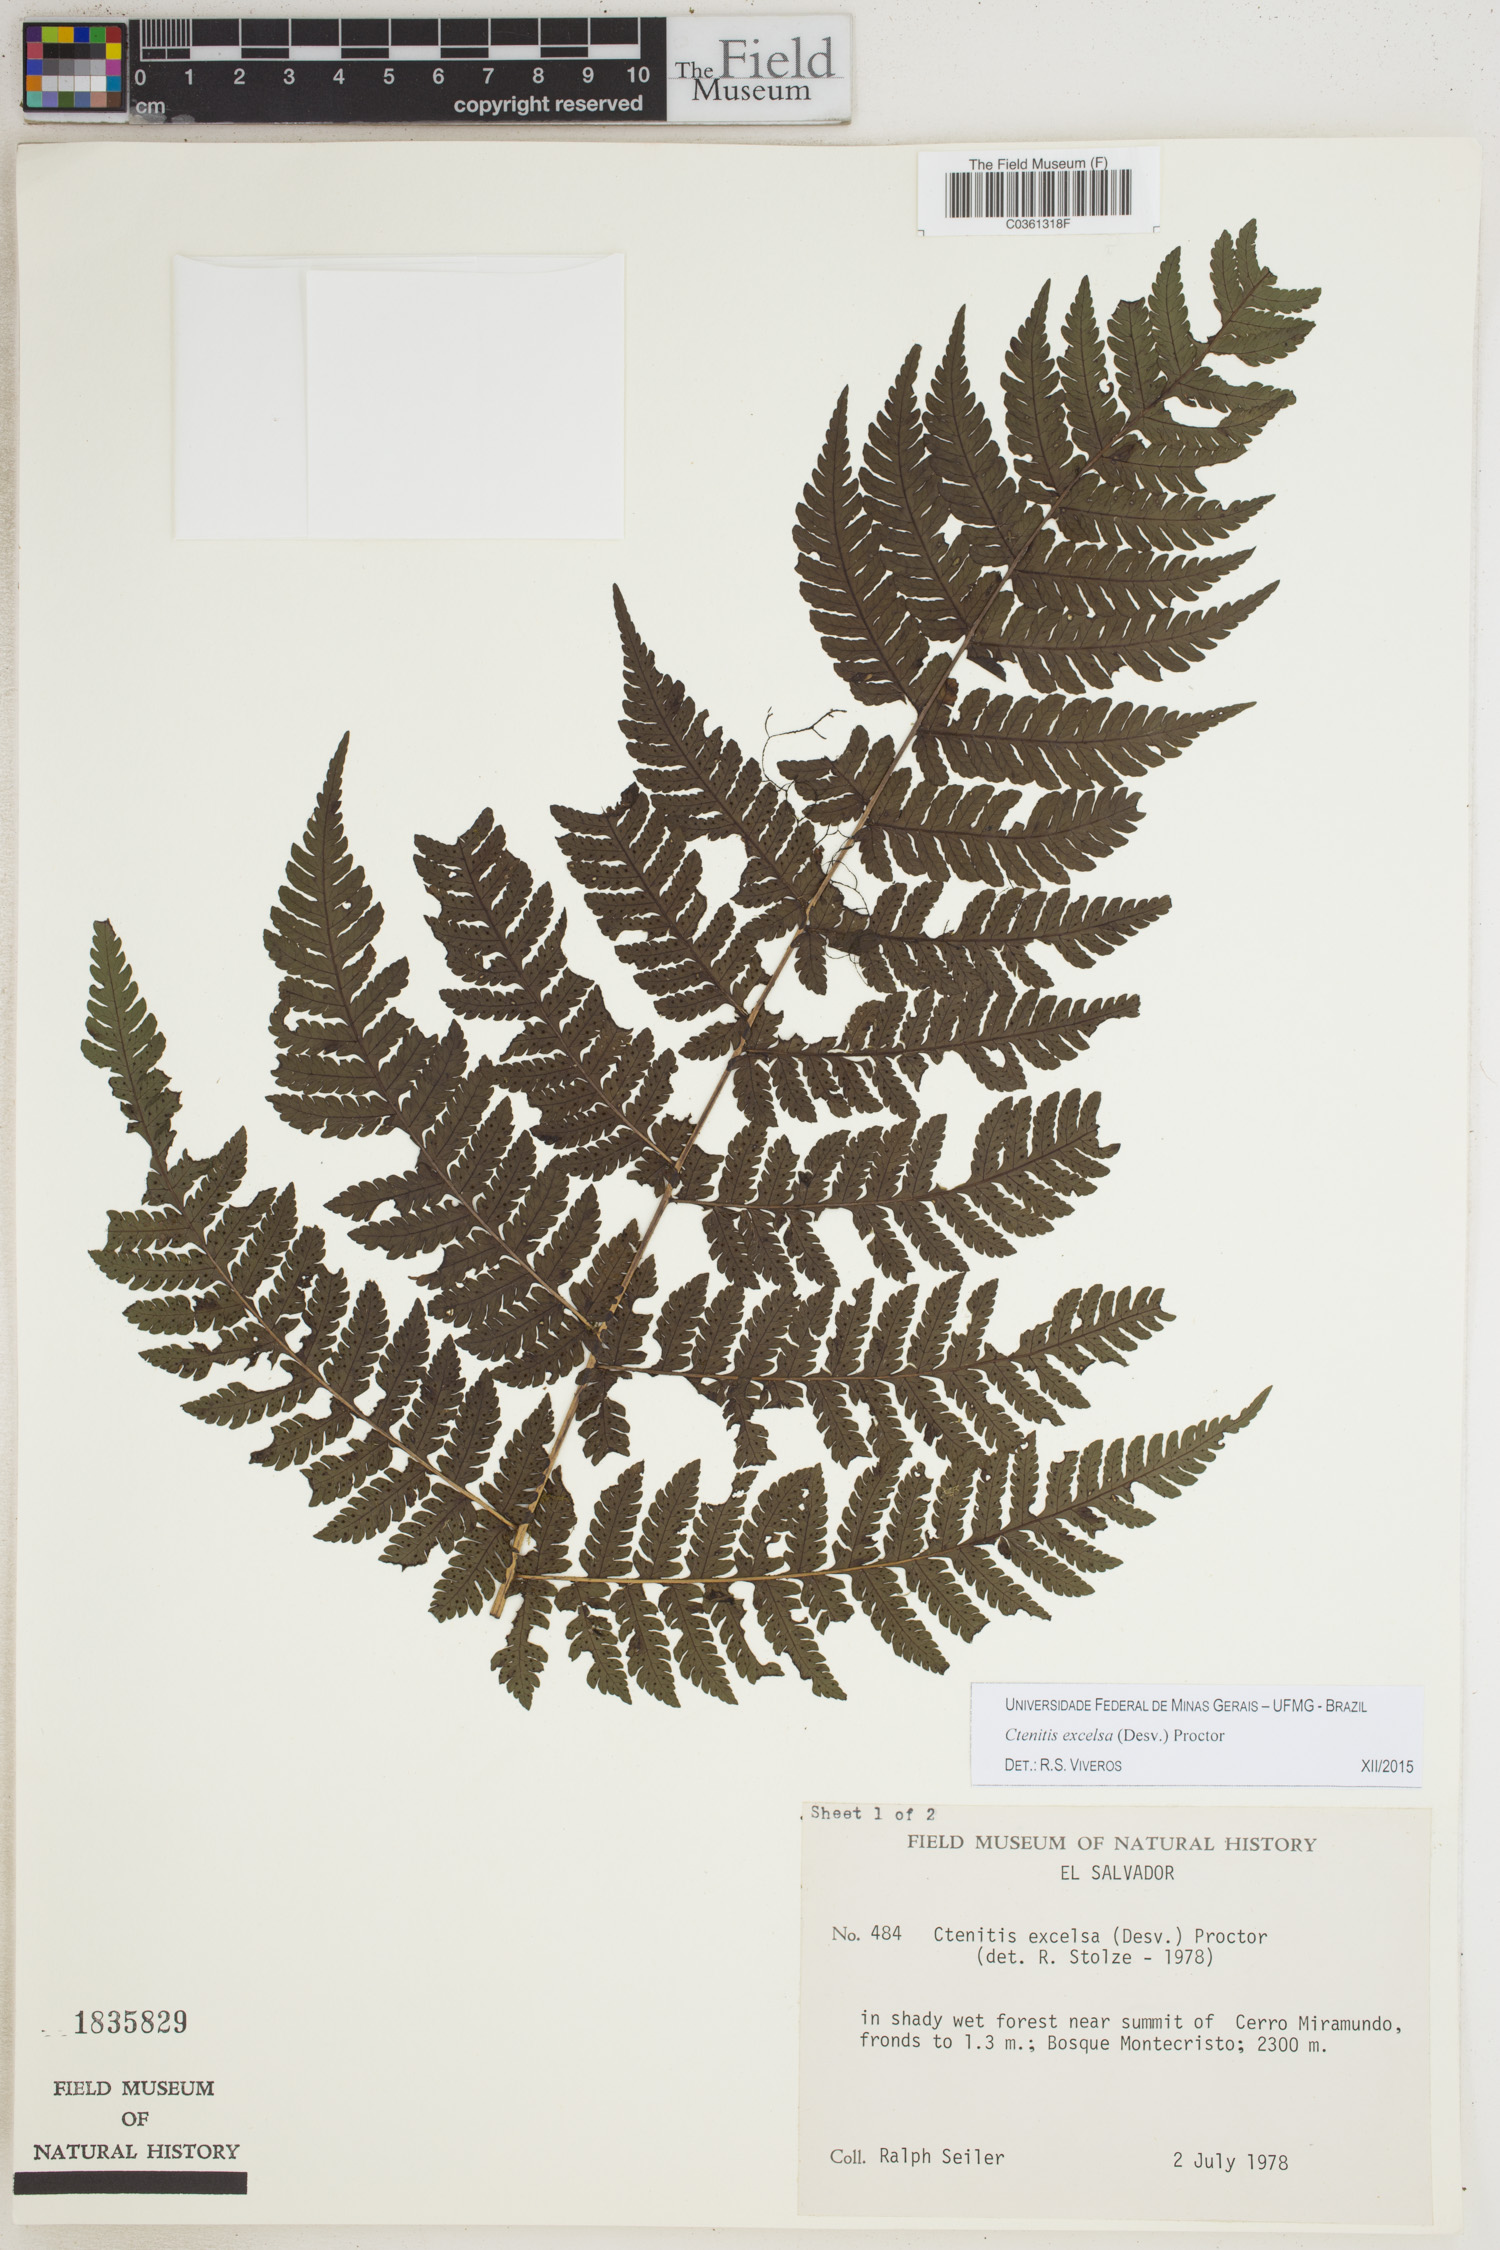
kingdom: Plantae
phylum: Tracheophyta
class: Polypodiopsida
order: Polypodiales
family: Dryopteridaceae
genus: Ctenitis
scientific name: Ctenitis excelsa
